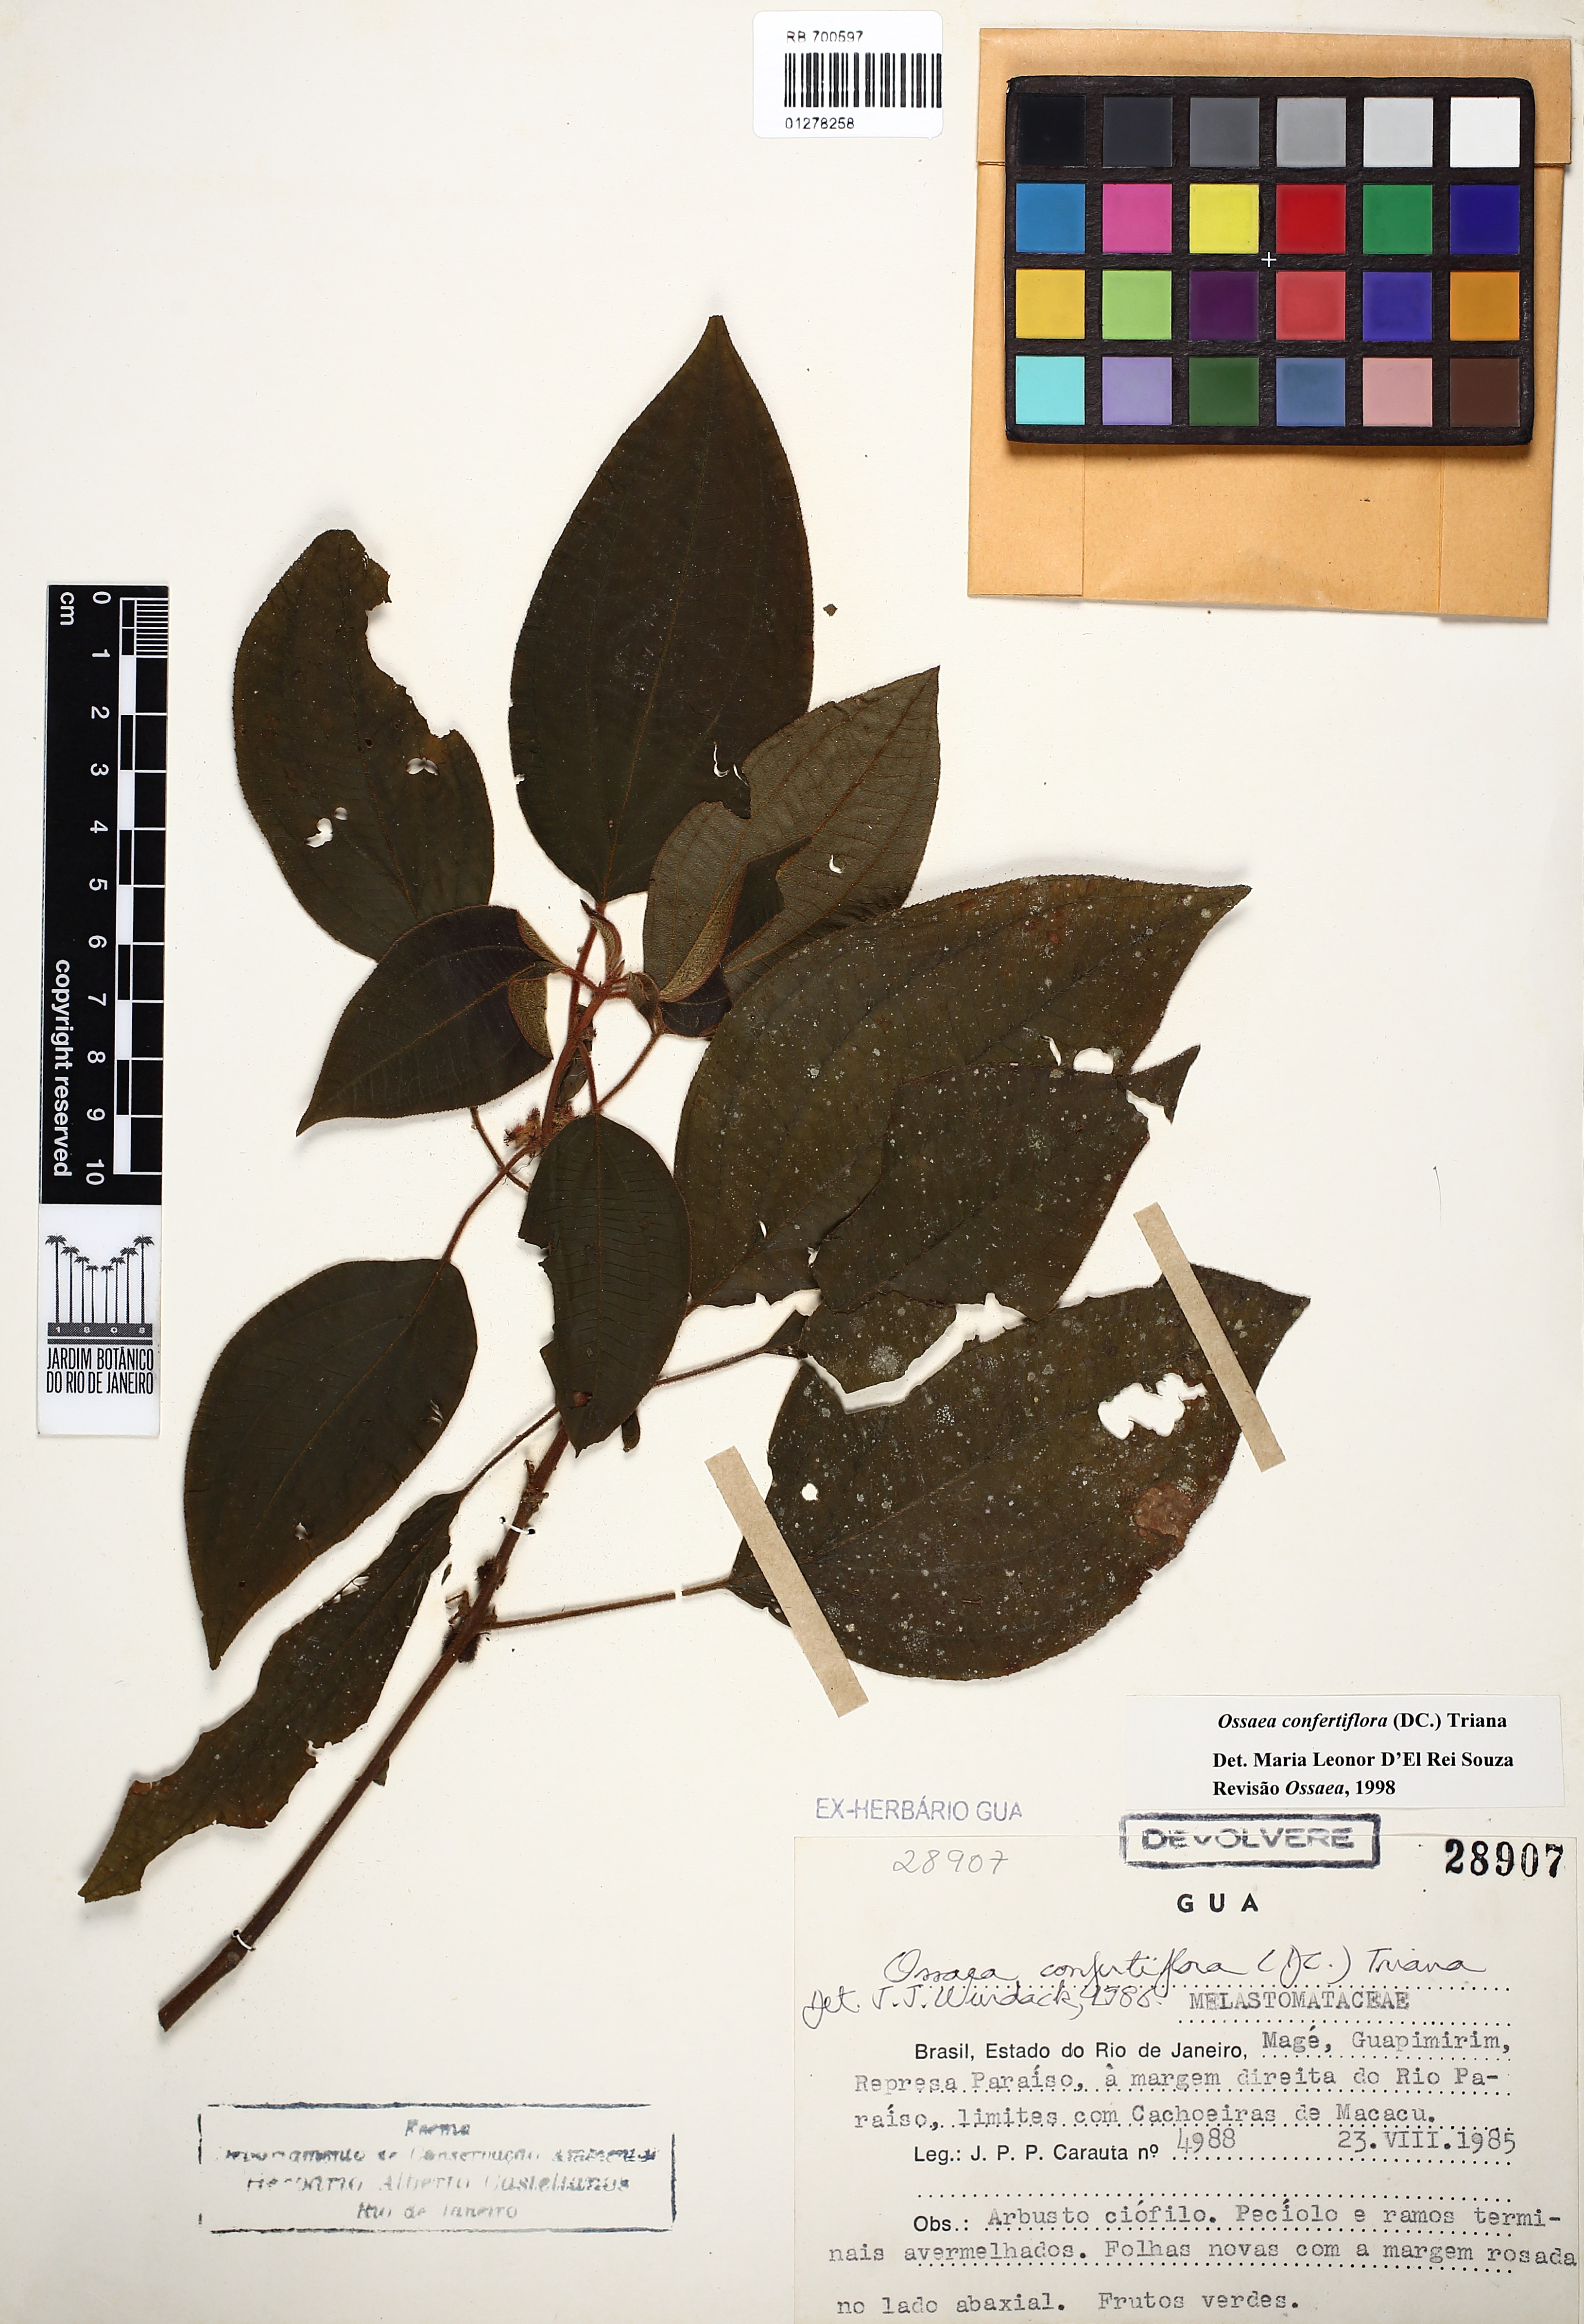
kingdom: Plantae
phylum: Tracheophyta
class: Magnoliopsida
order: Myrtales
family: Melastomataceae
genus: Miconia
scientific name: Miconia rubella
